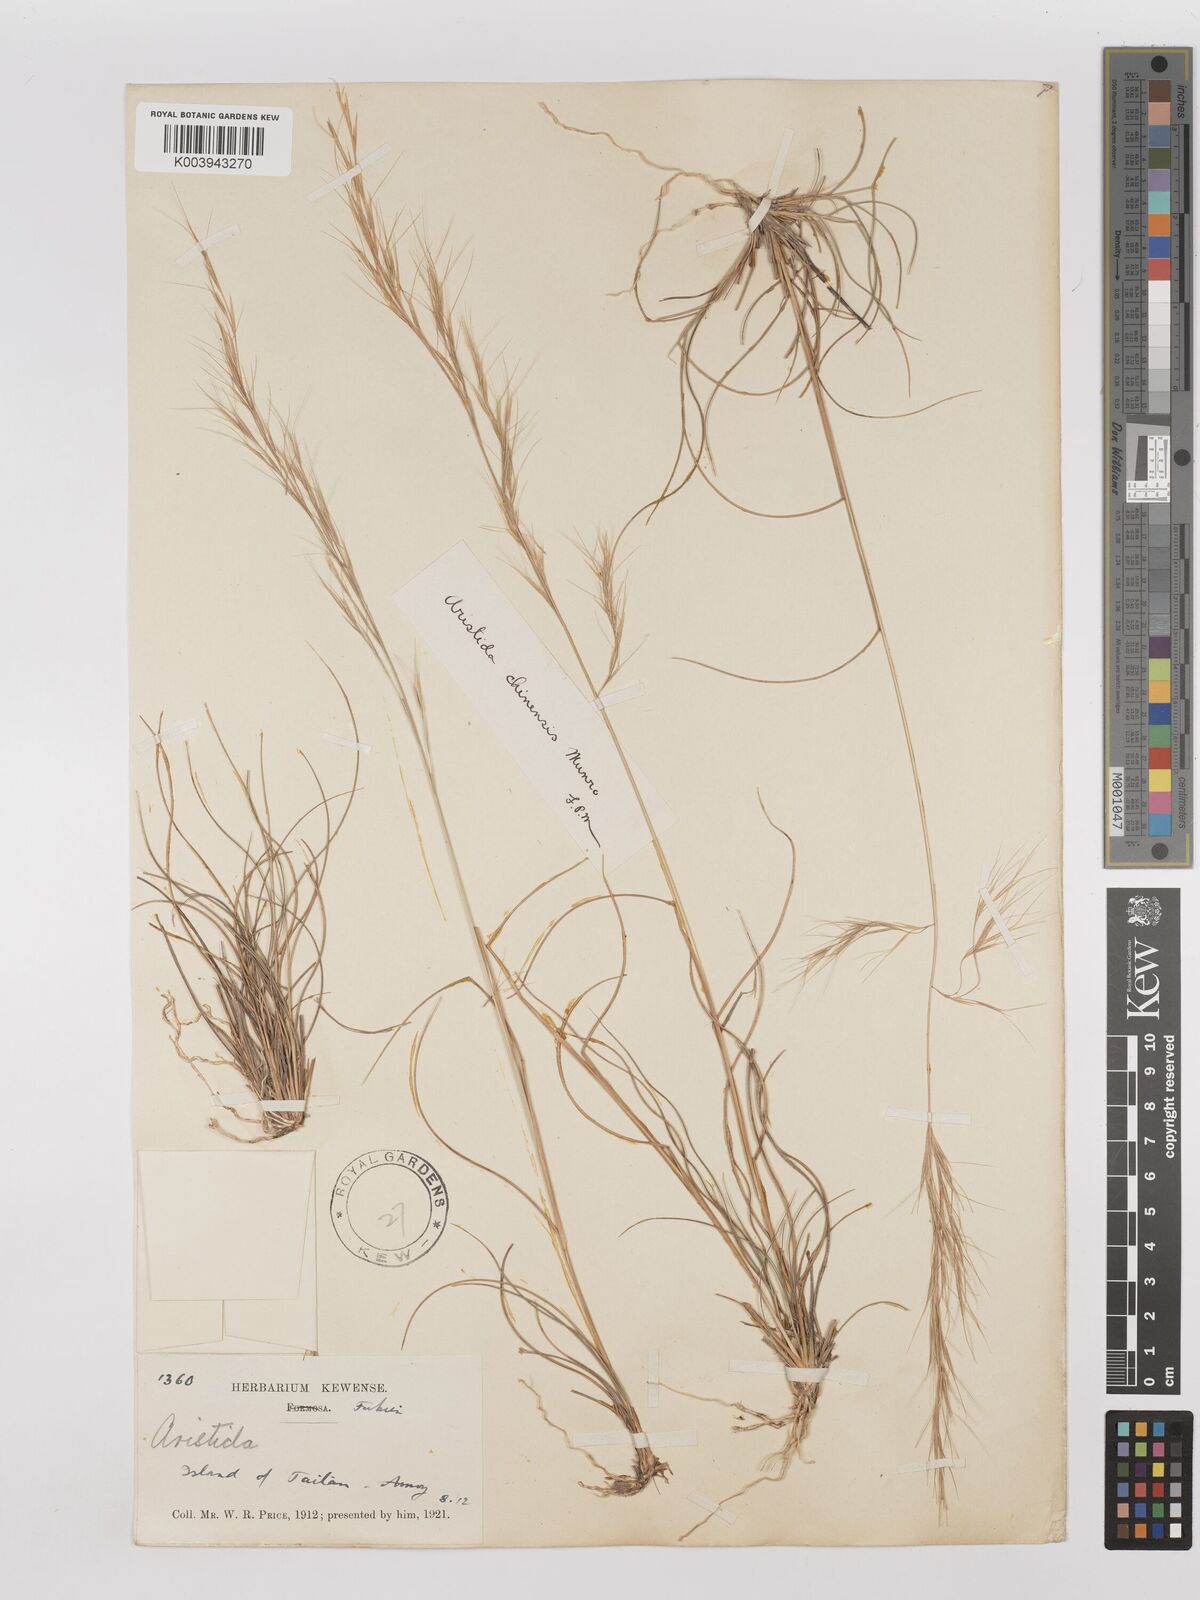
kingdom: Plantae
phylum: Tracheophyta
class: Liliopsida
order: Poales
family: Poaceae
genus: Aristida
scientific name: Aristida chinensis
